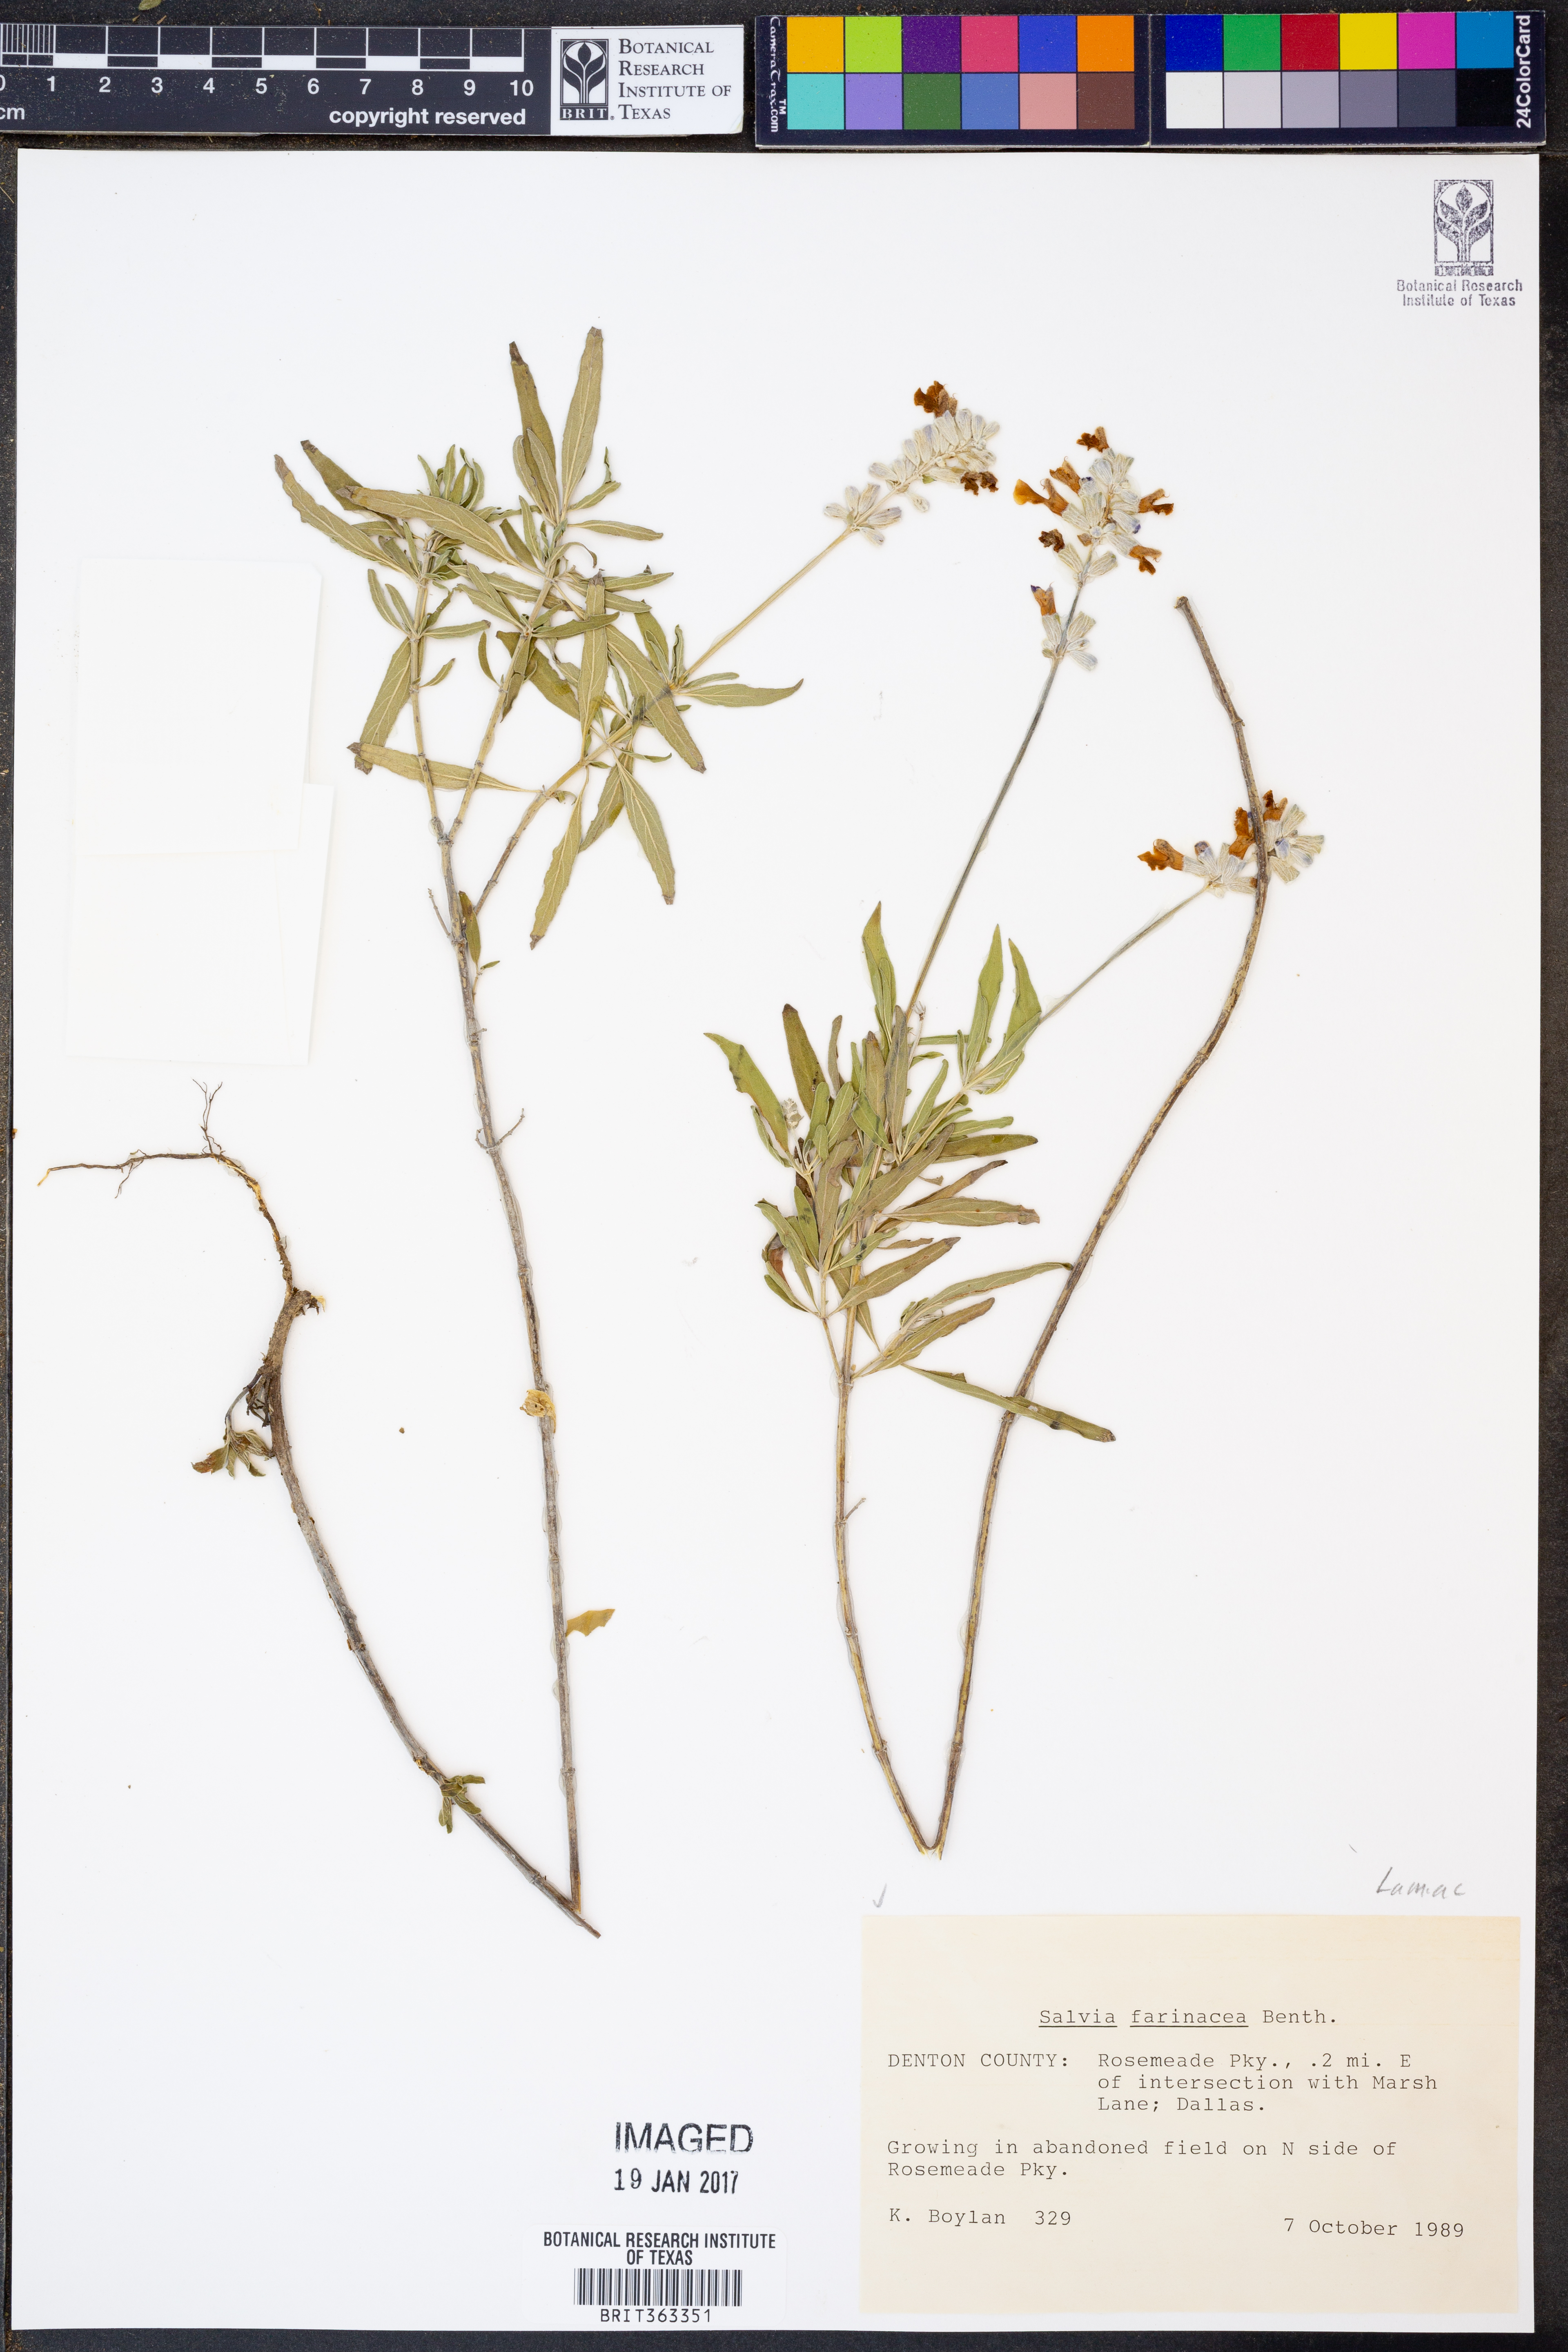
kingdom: Plantae
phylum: Tracheophyta
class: Magnoliopsida
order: Lamiales
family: Lamiaceae
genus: Salvia
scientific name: Salvia farinacea
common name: Mealy sage
